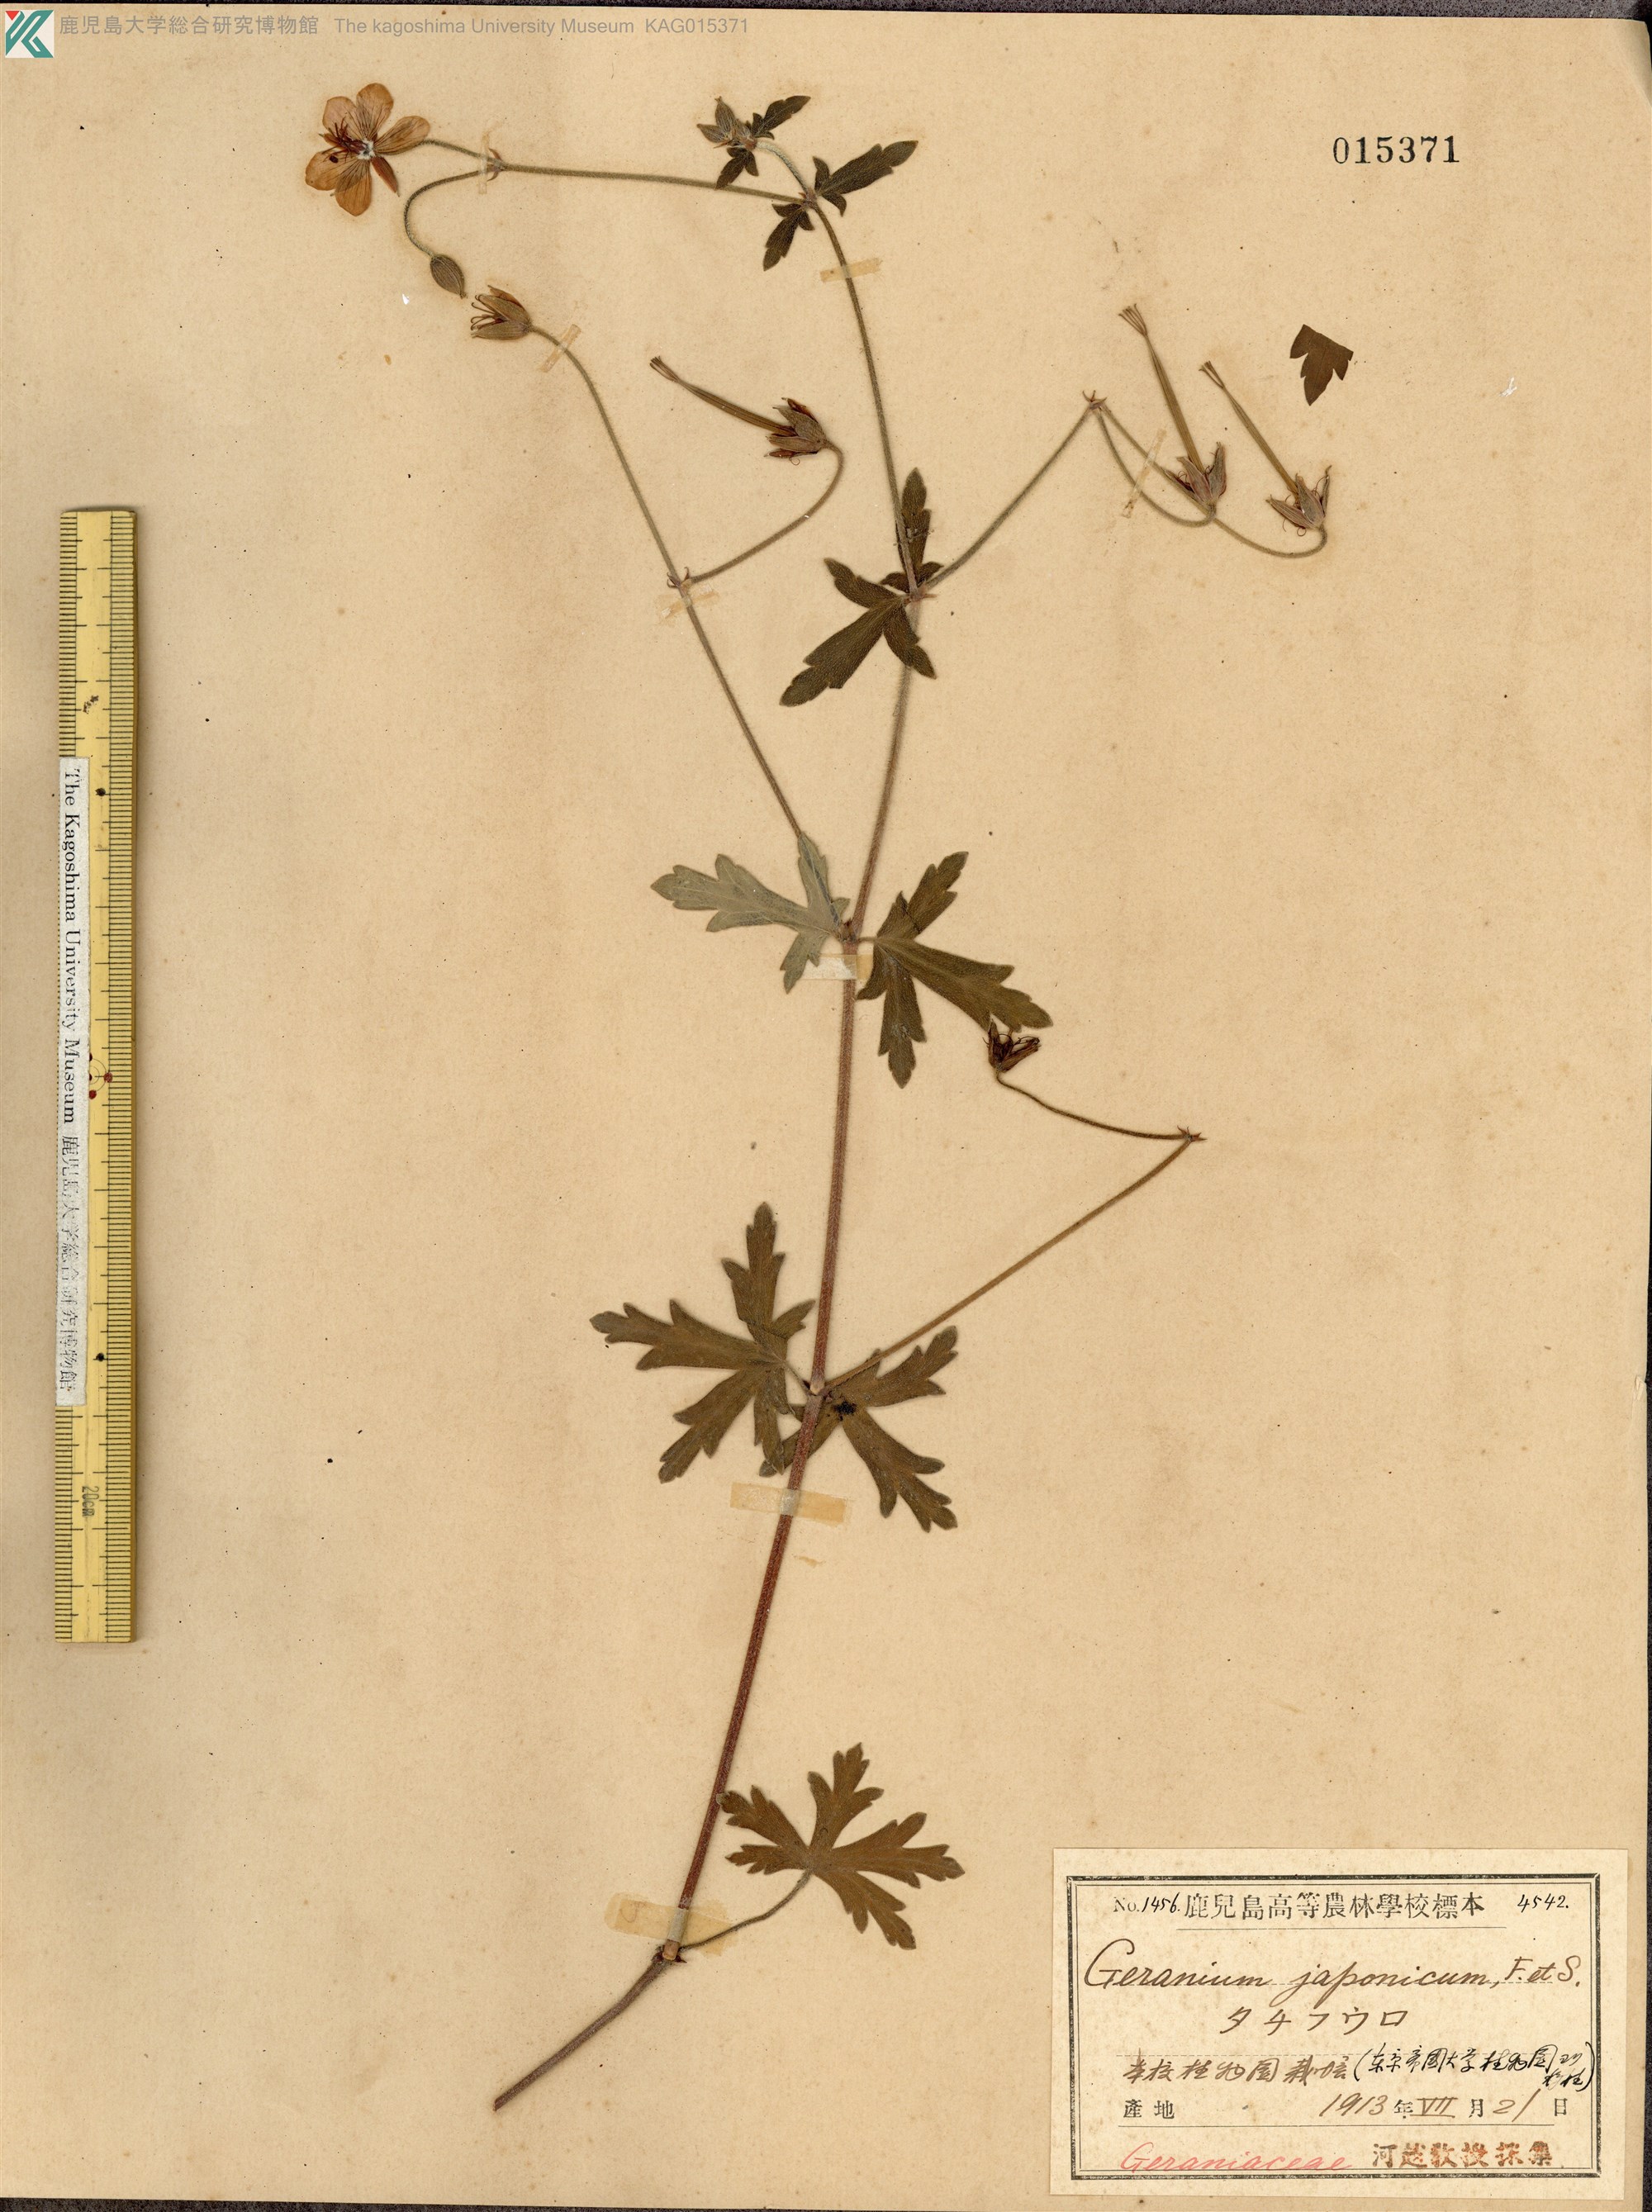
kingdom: Plantae
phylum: Tracheophyta
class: Magnoliopsida
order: Geraniales
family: Geraniaceae
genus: Geranium
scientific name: Geranium krameri
